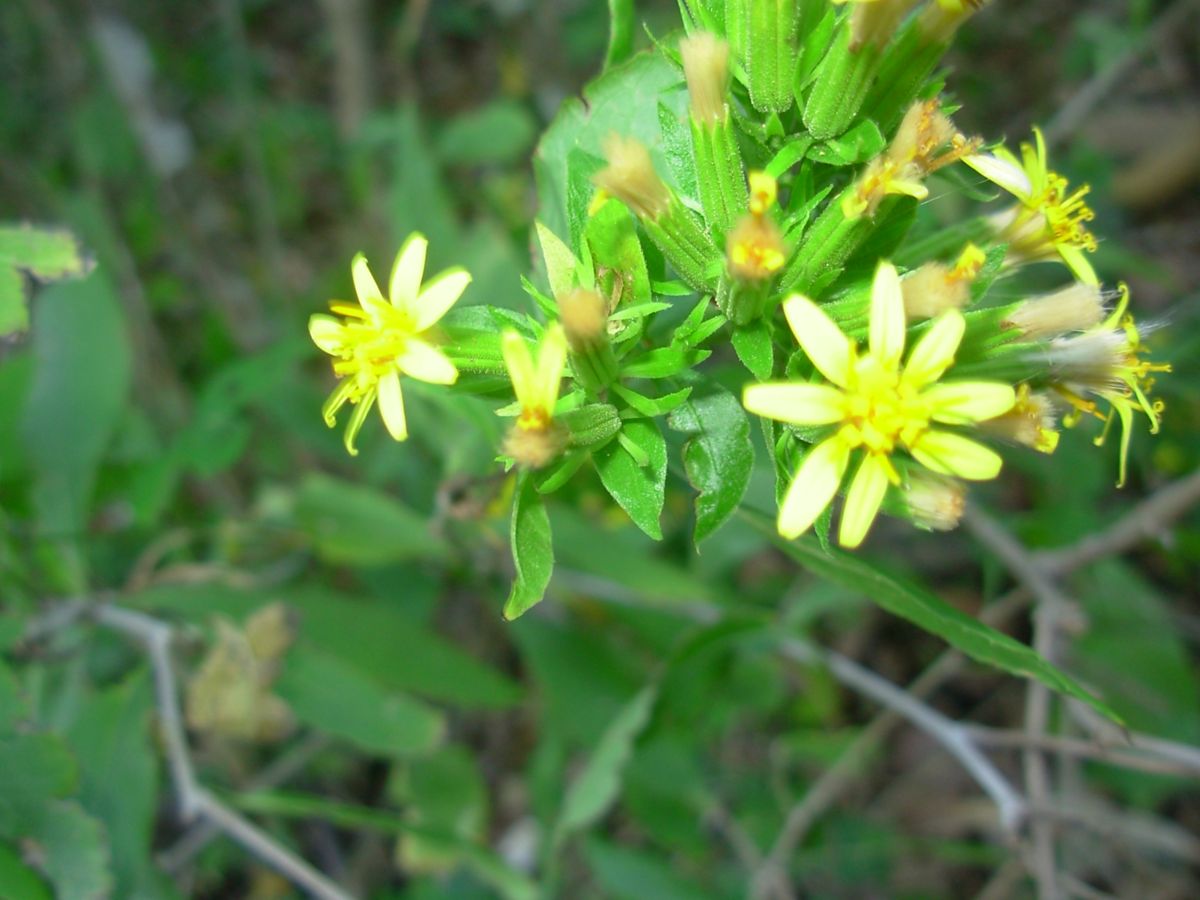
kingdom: Plantae
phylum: Tracheophyta
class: Magnoliopsida
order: Asterales
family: Asteraceae
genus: Trixis
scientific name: Trixis inula
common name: Tropical threefold
